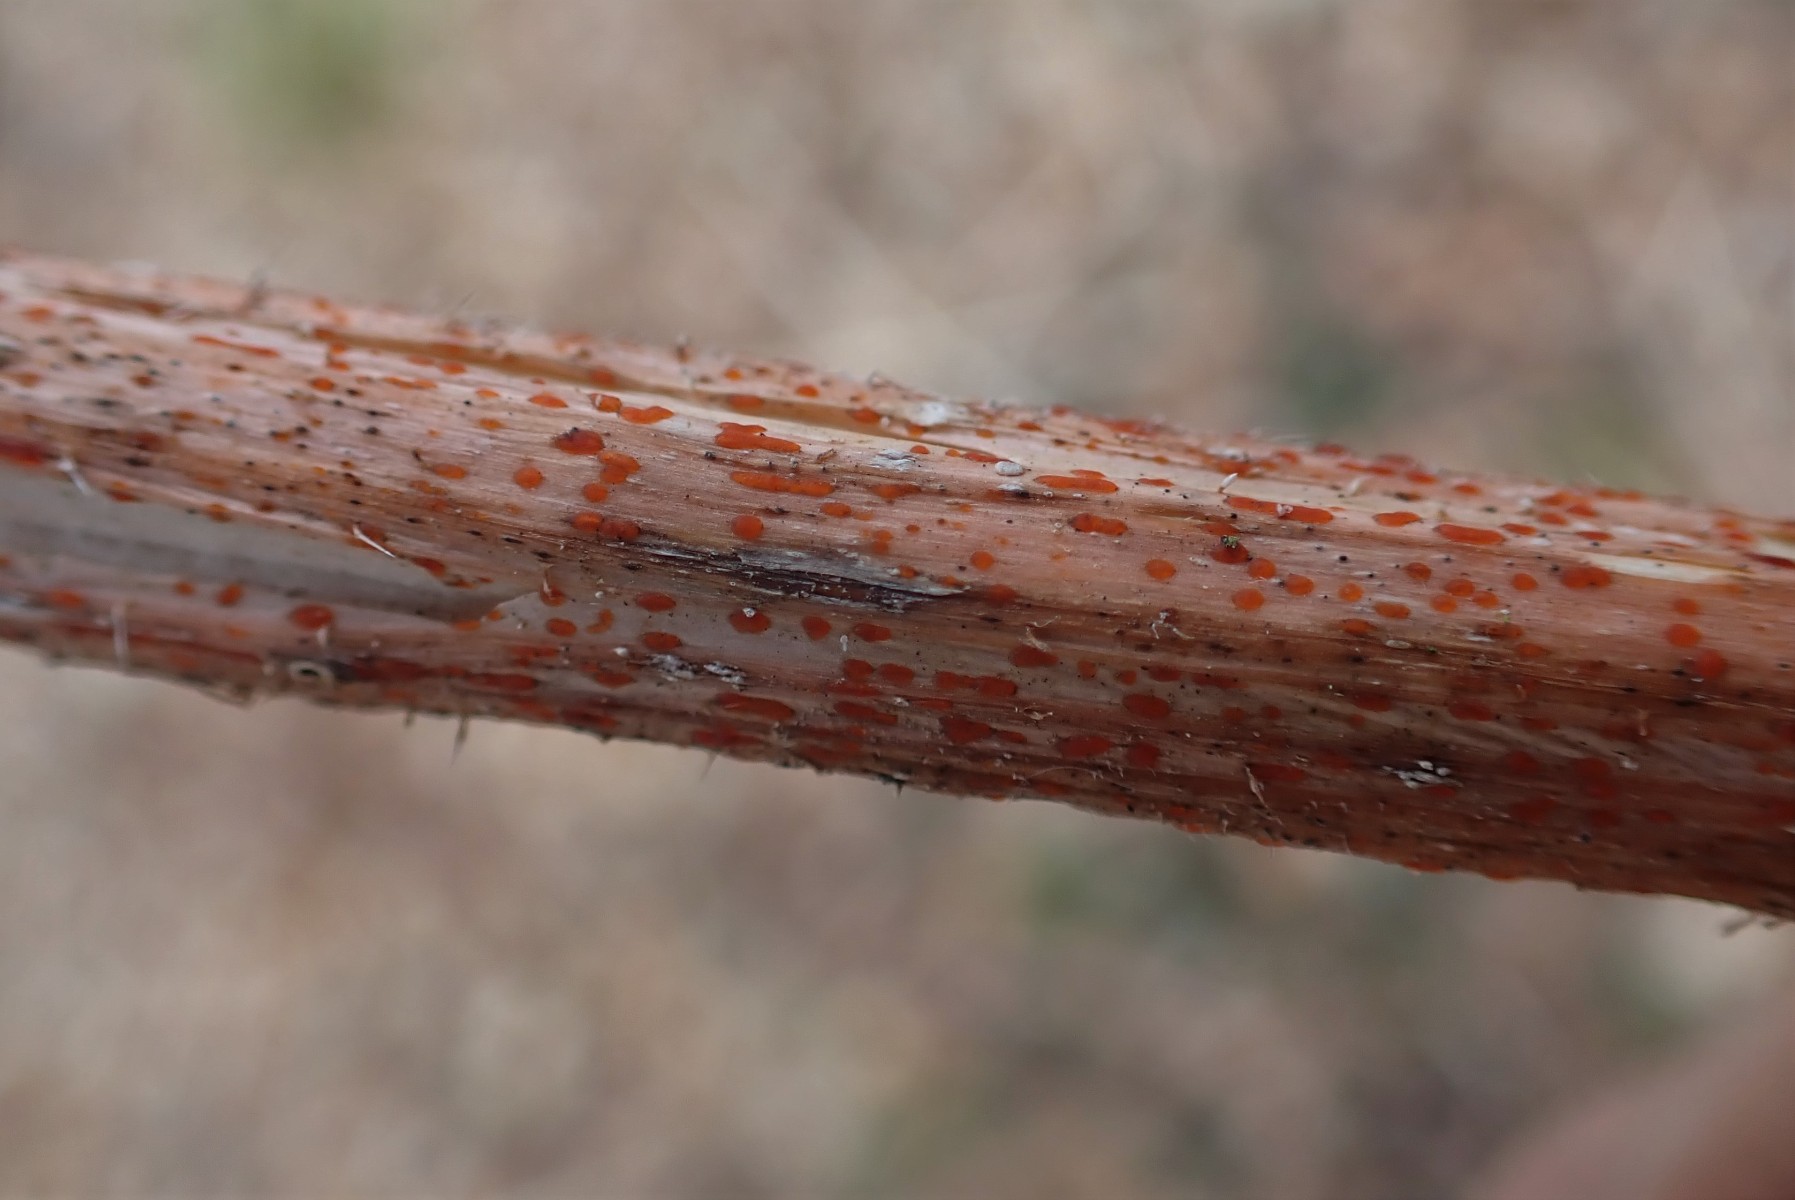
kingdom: Fungi
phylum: Ascomycota
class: Leotiomycetes
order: Helotiales
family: Calloriaceae
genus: Calloria
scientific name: Calloria urticae
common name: nælde-orangeskive
